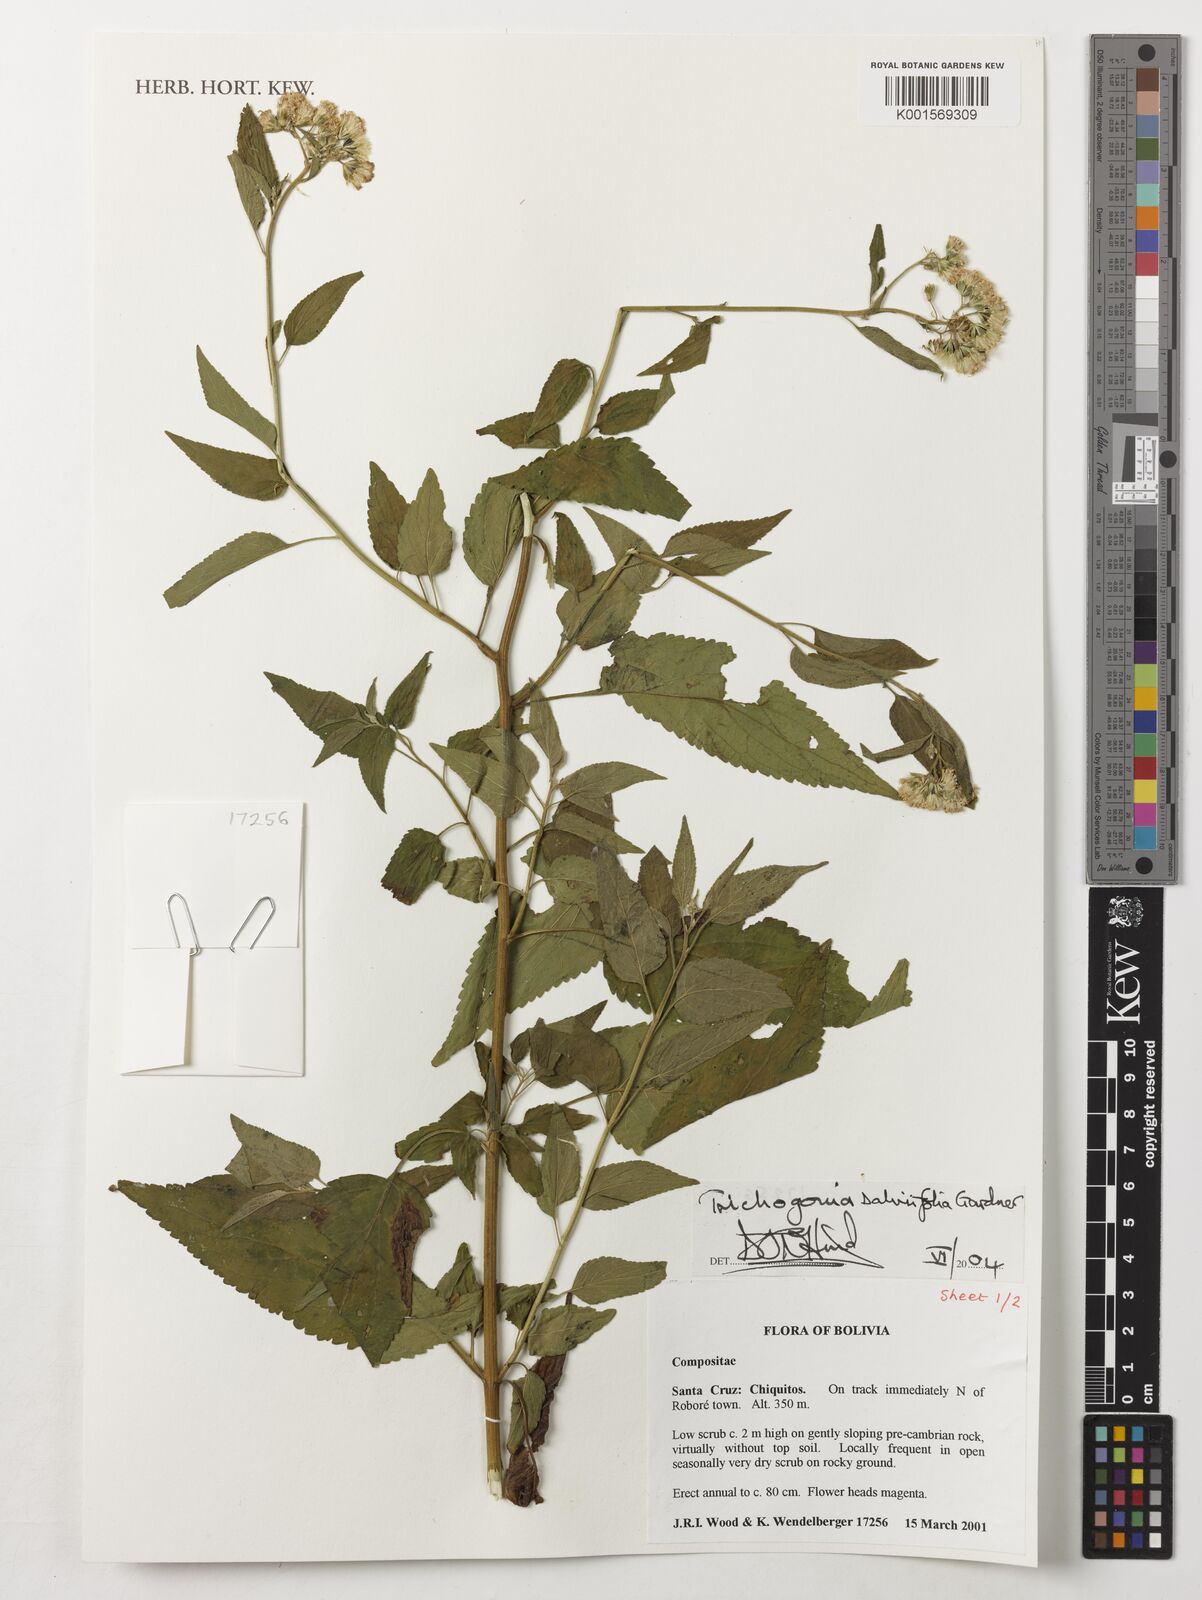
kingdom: Plantae
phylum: Tracheophyta
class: Magnoliopsida
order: Asterales
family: Asteraceae
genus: Trichogonia
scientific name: Trichogonia salviifolia
